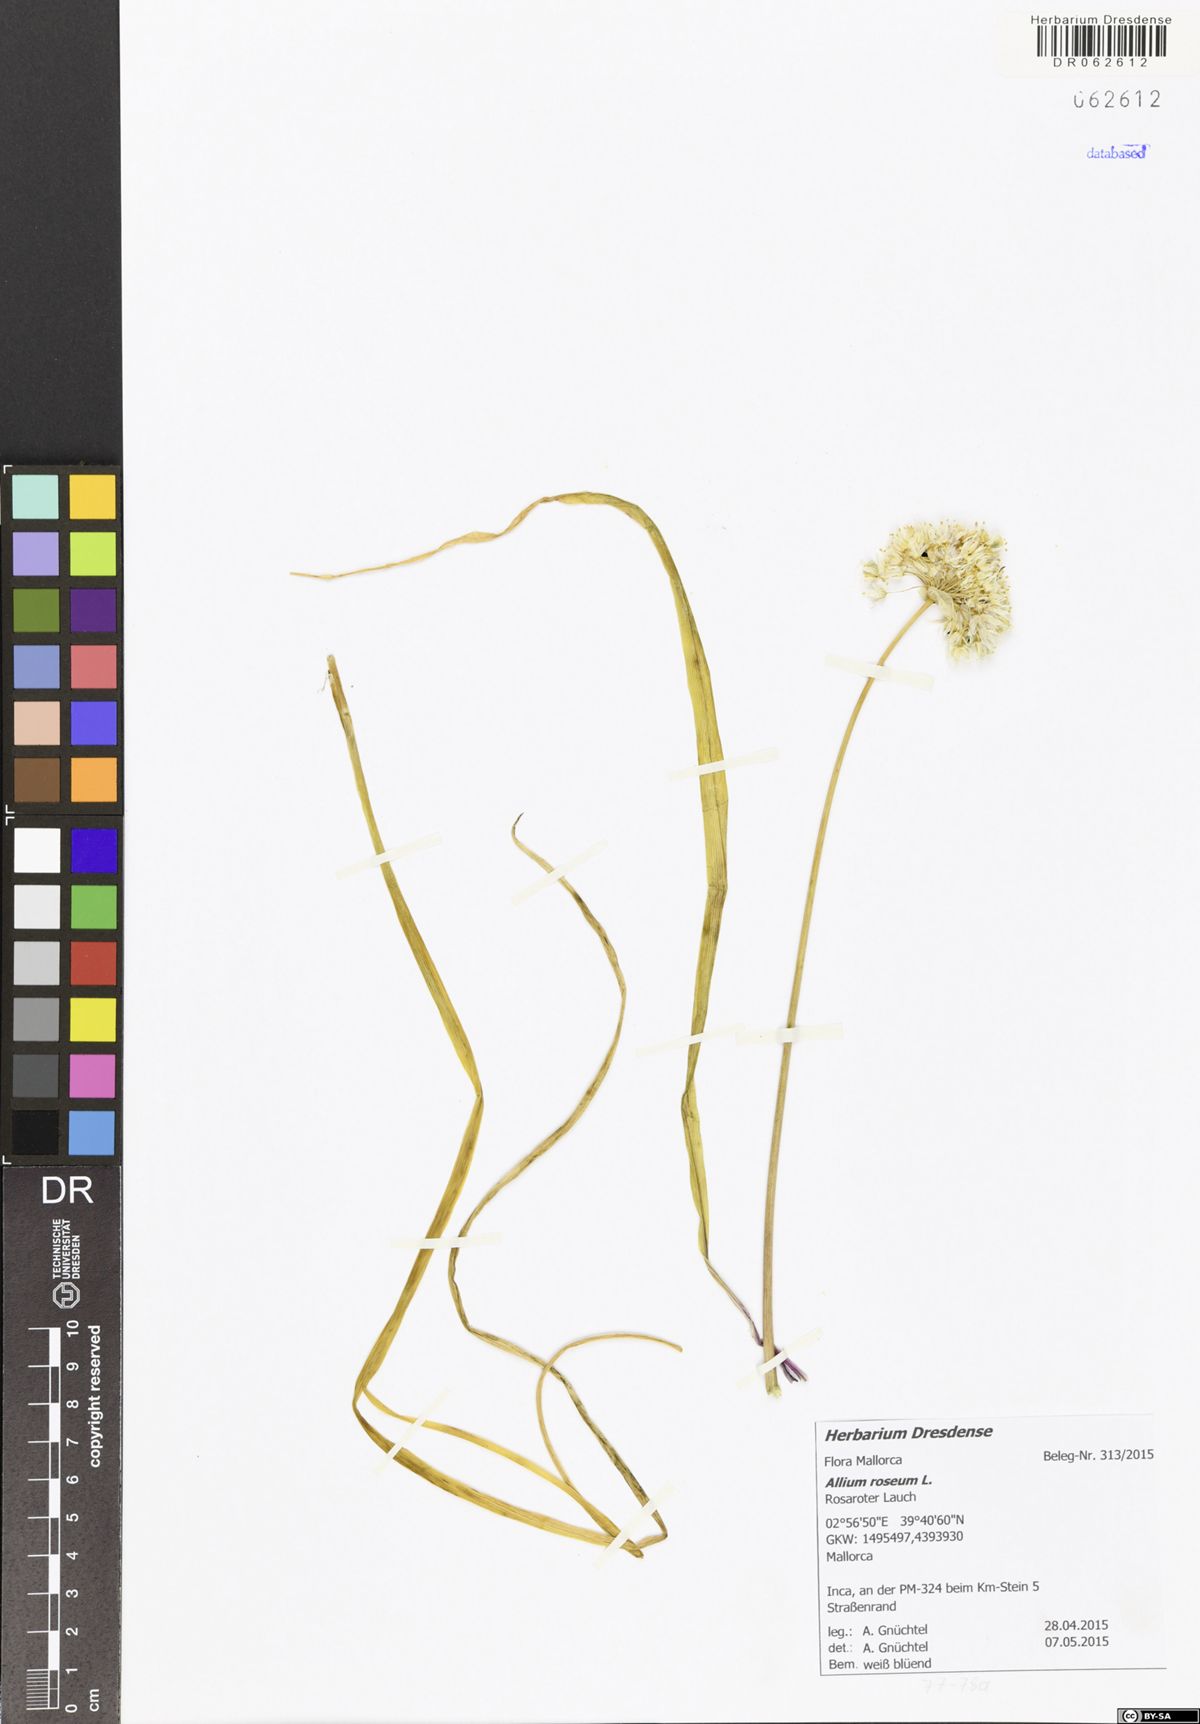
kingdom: Plantae
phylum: Tracheophyta
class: Liliopsida
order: Asparagales
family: Amaryllidaceae
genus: Allium
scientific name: Allium roseum
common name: Rosy garlic
